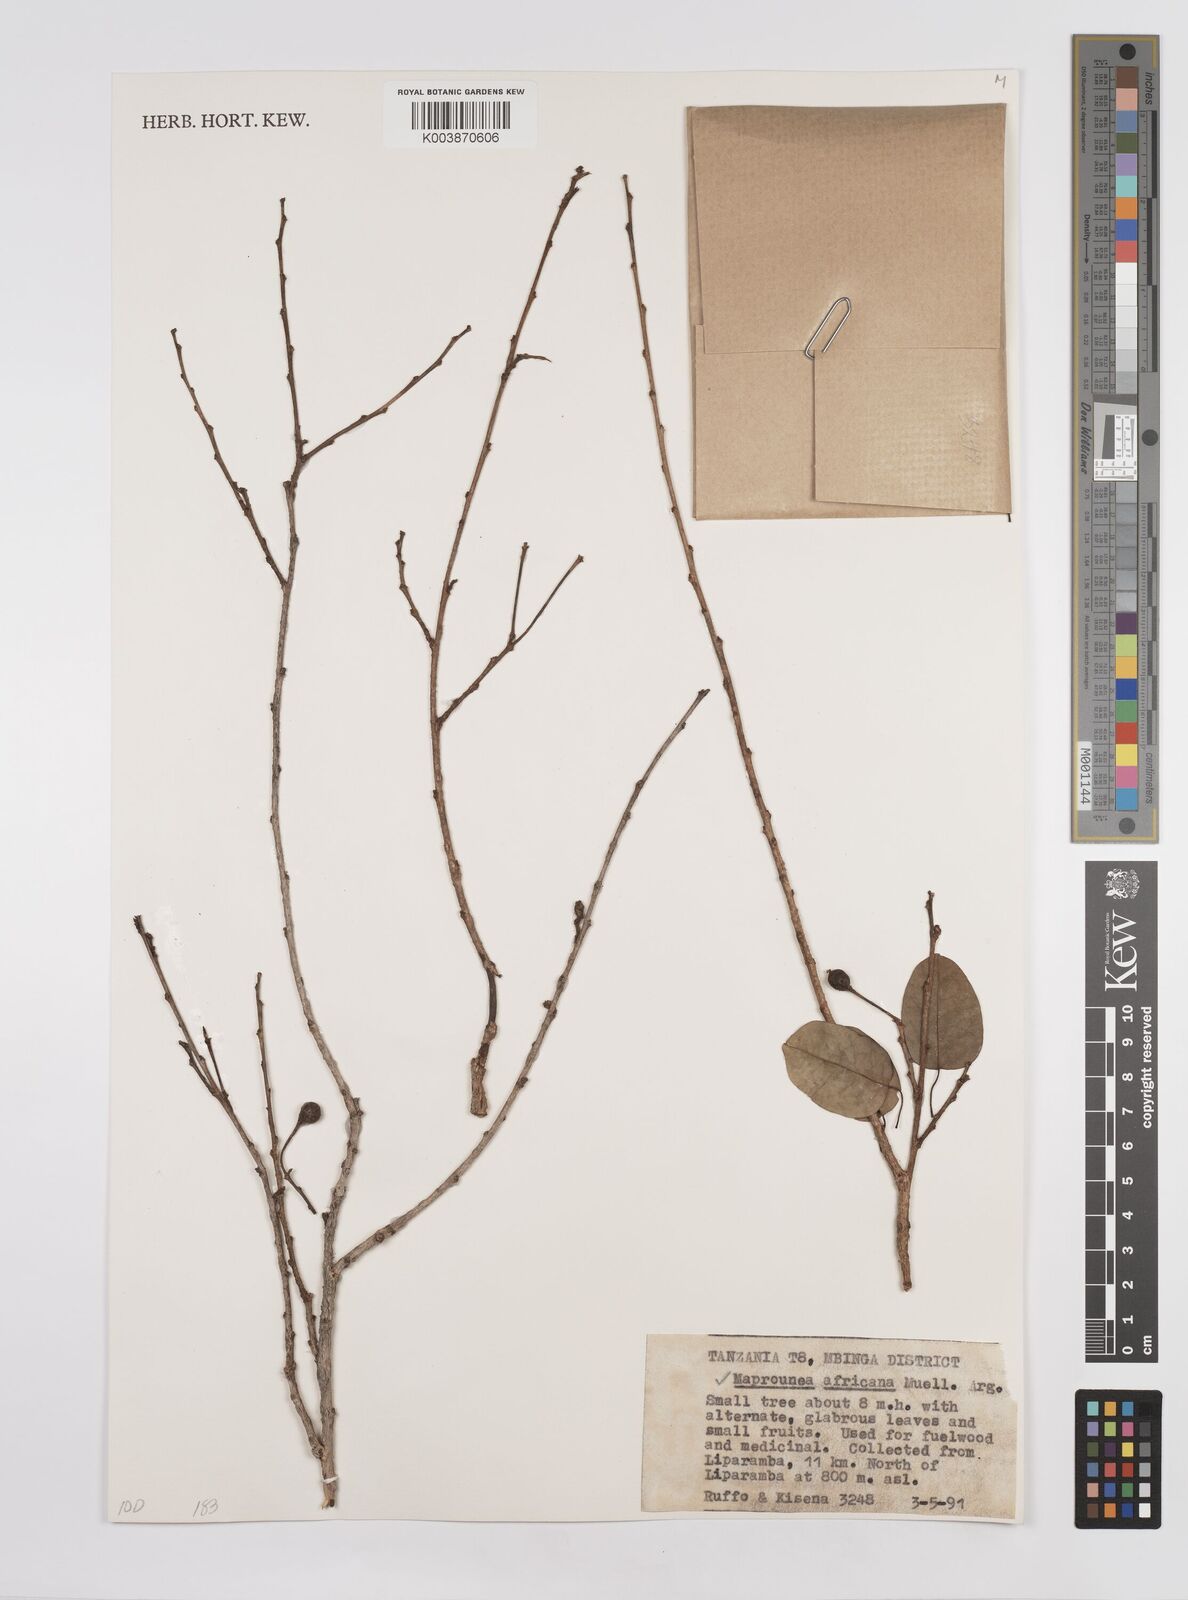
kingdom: Plantae
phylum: Tracheophyta
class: Magnoliopsida
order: Malpighiales
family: Euphorbiaceae
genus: Maprounea
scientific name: Maprounea africana
